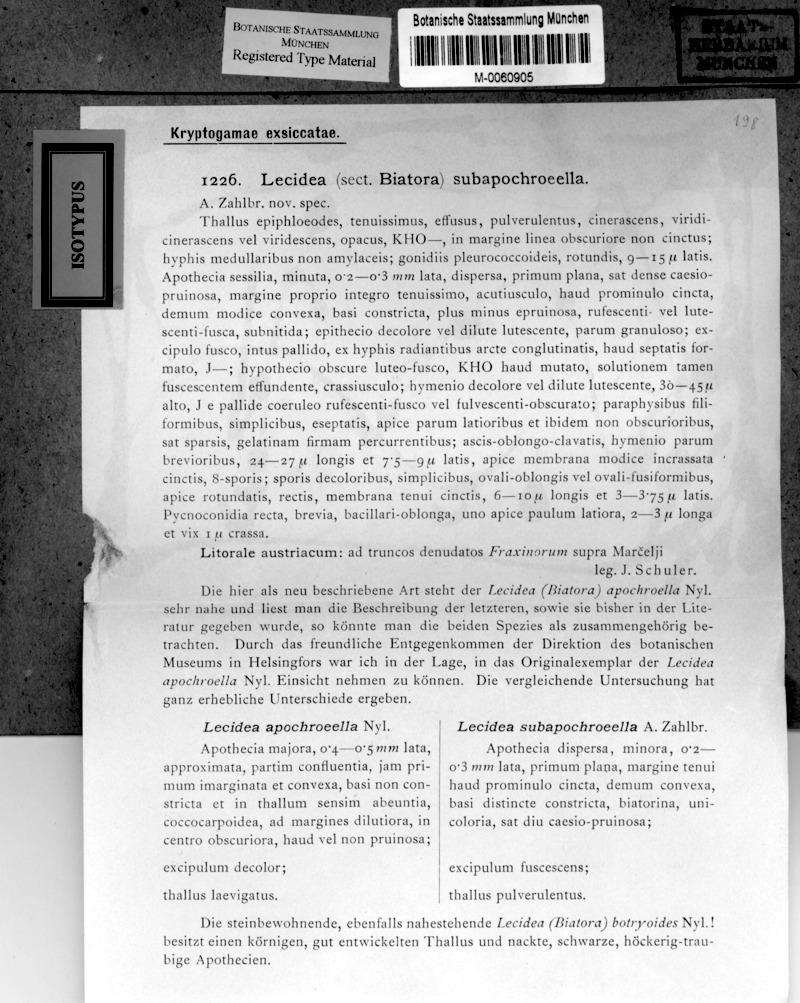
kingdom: Fungi
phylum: Ascomycota
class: Lecanoromycetes
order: Lecideales
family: Lecideaceae
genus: Lecidea
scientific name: Lecidea subapochroeella
